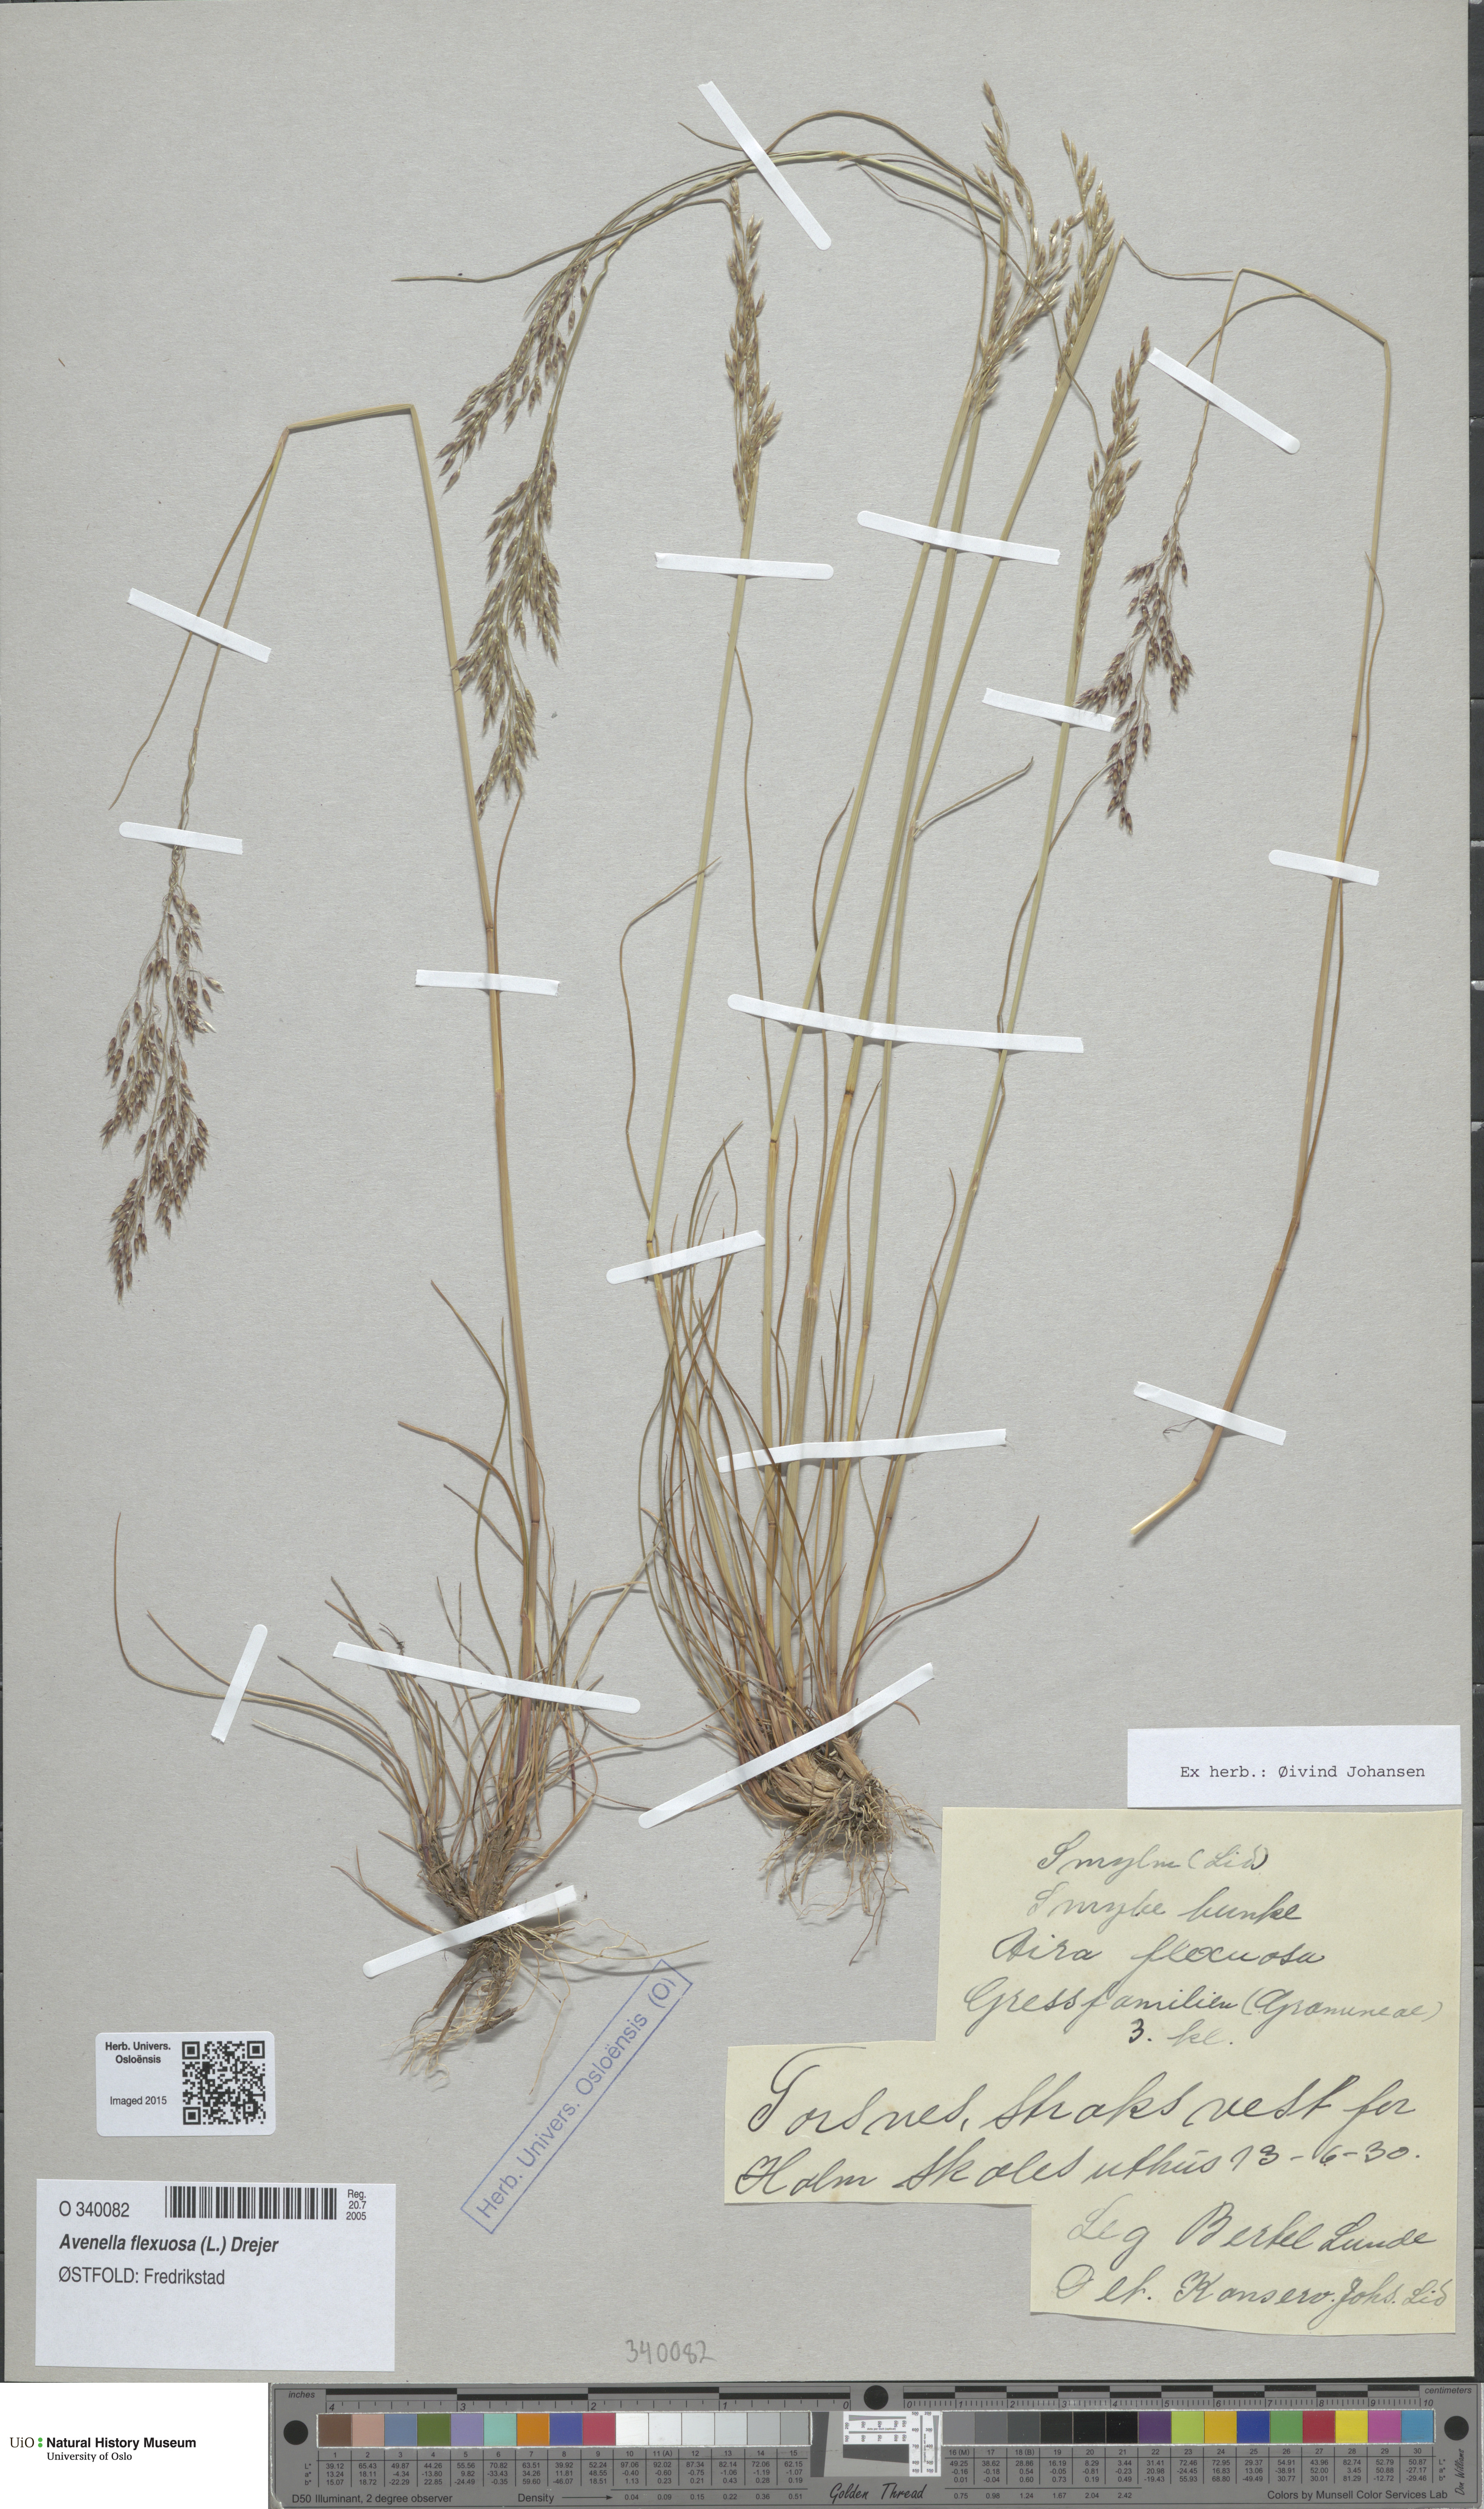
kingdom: Plantae
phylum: Tracheophyta
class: Liliopsida
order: Poales
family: Poaceae
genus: Avenella
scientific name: Avenella flexuosa
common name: Wavy hairgrass
